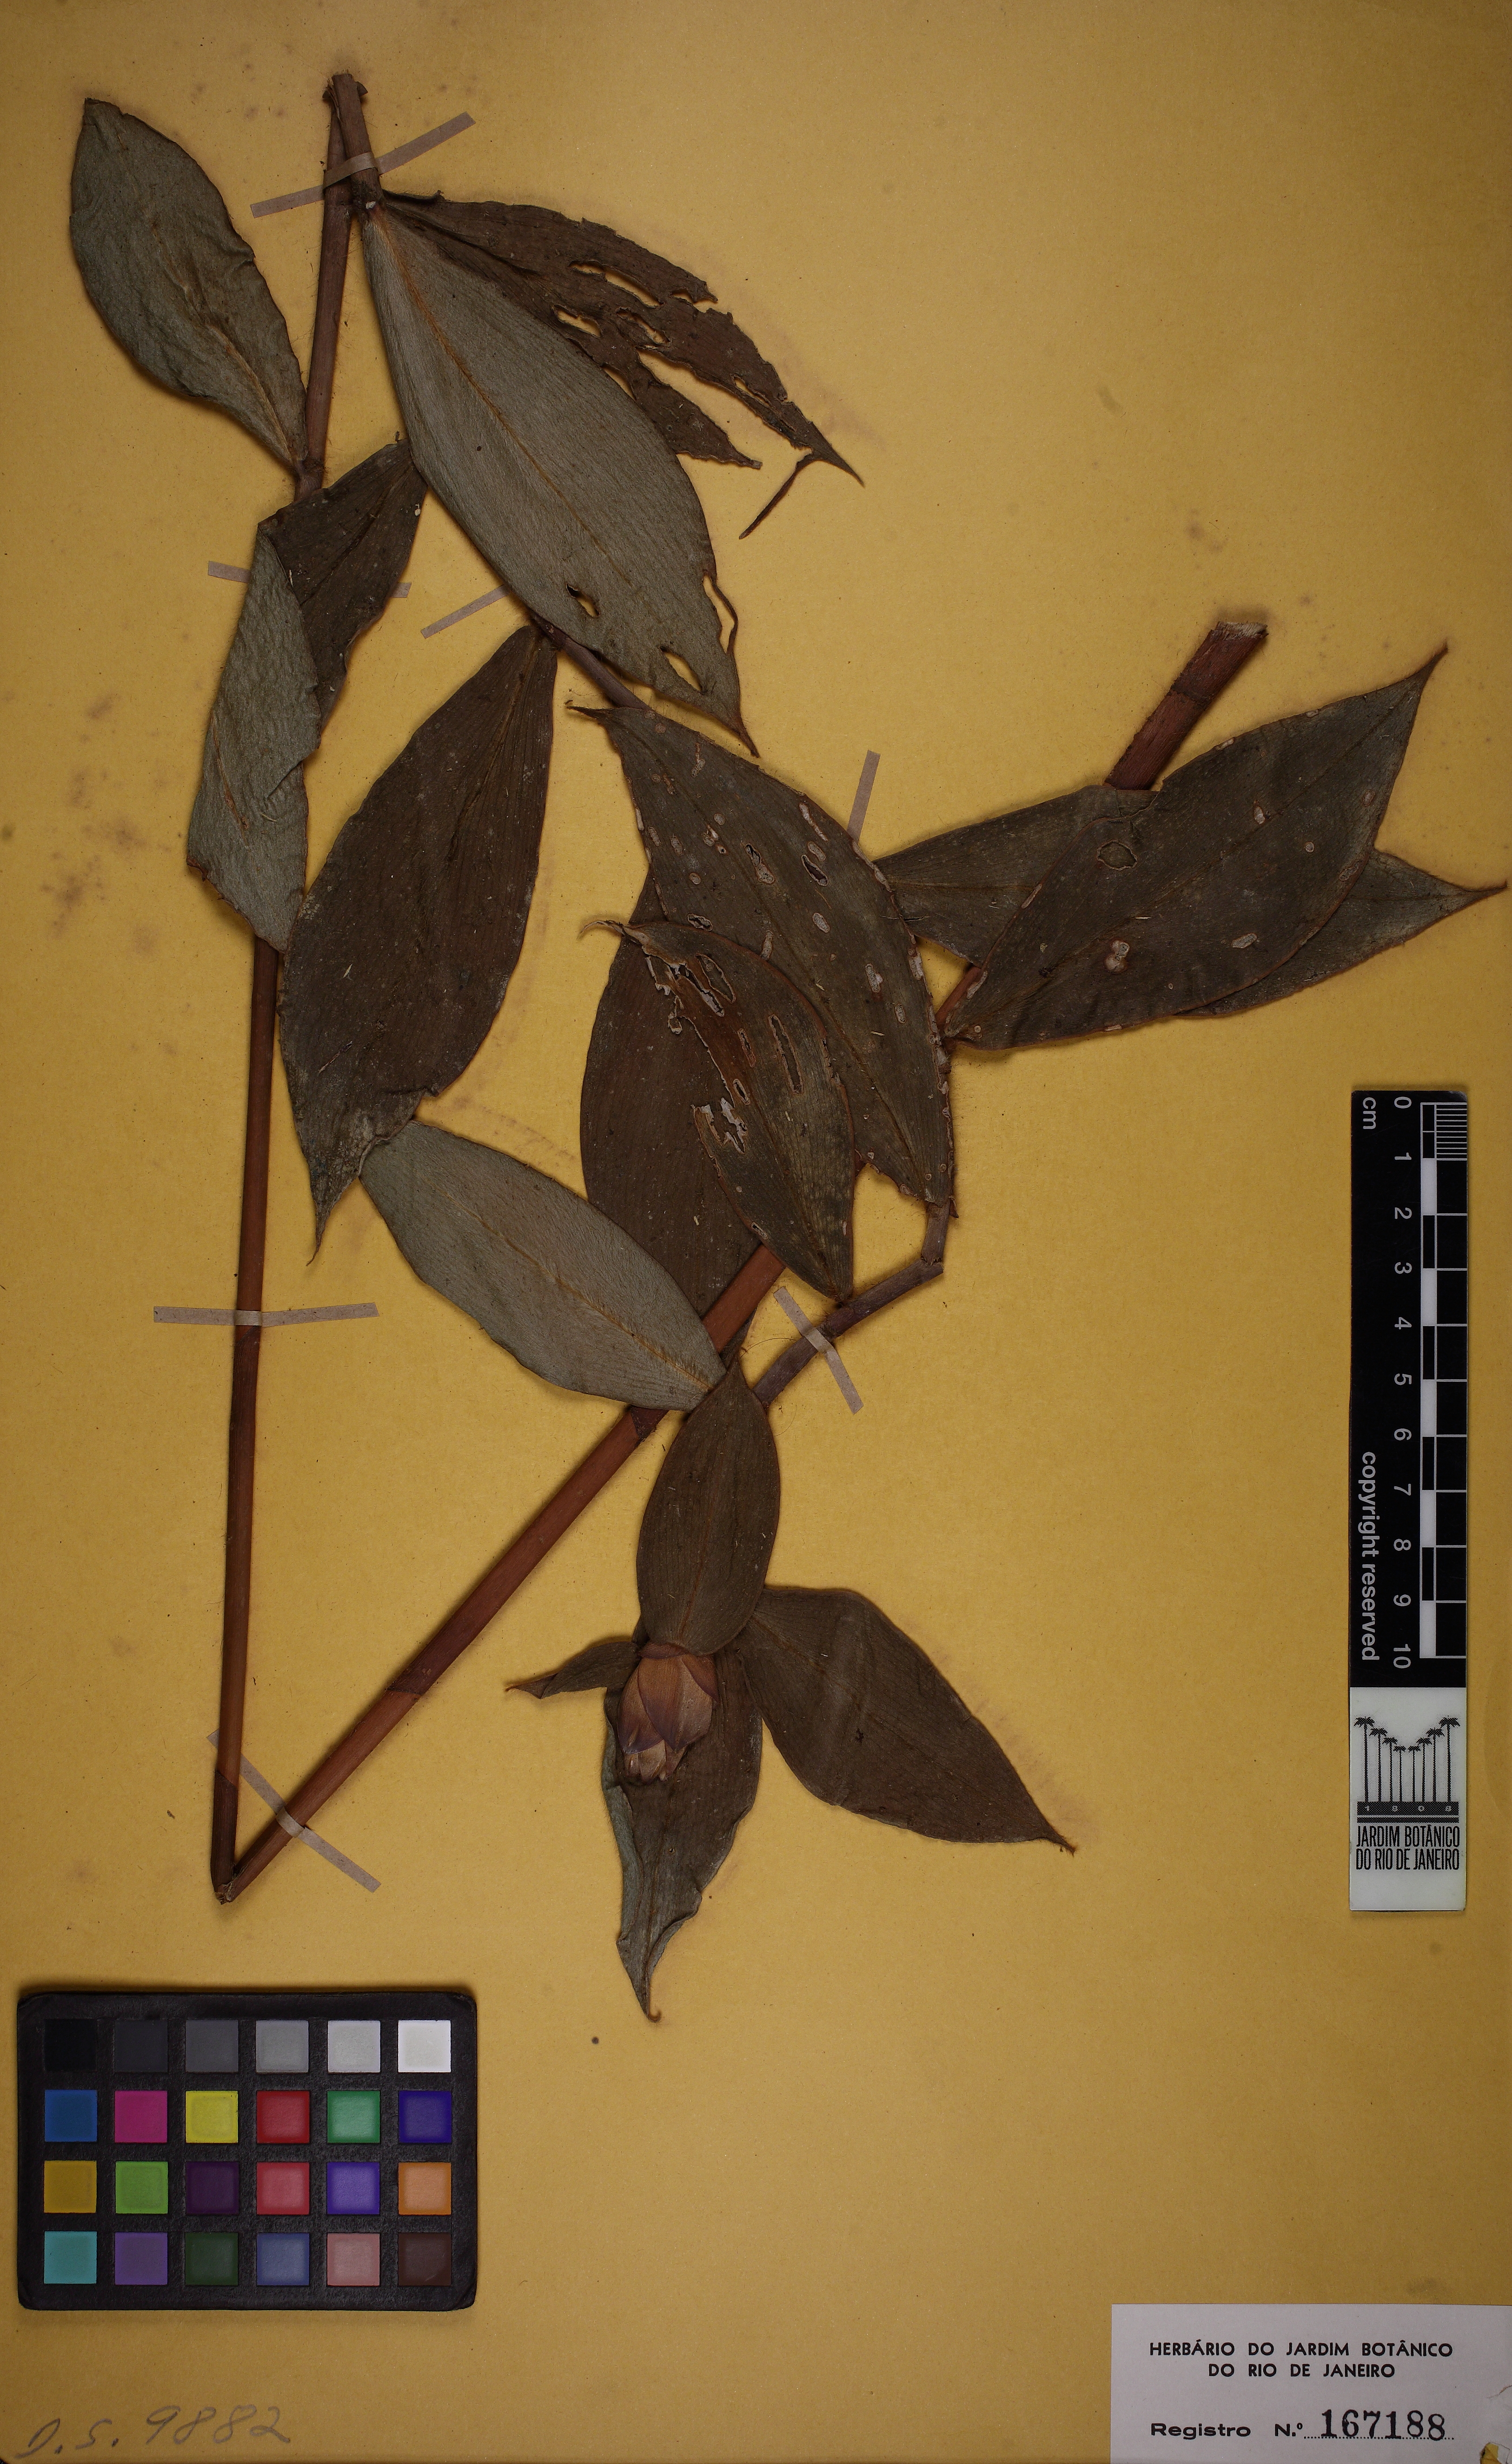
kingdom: Plantae
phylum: Tracheophyta
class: Liliopsida
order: Zingiberales
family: Costaceae
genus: Costus
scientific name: Costus lasius
